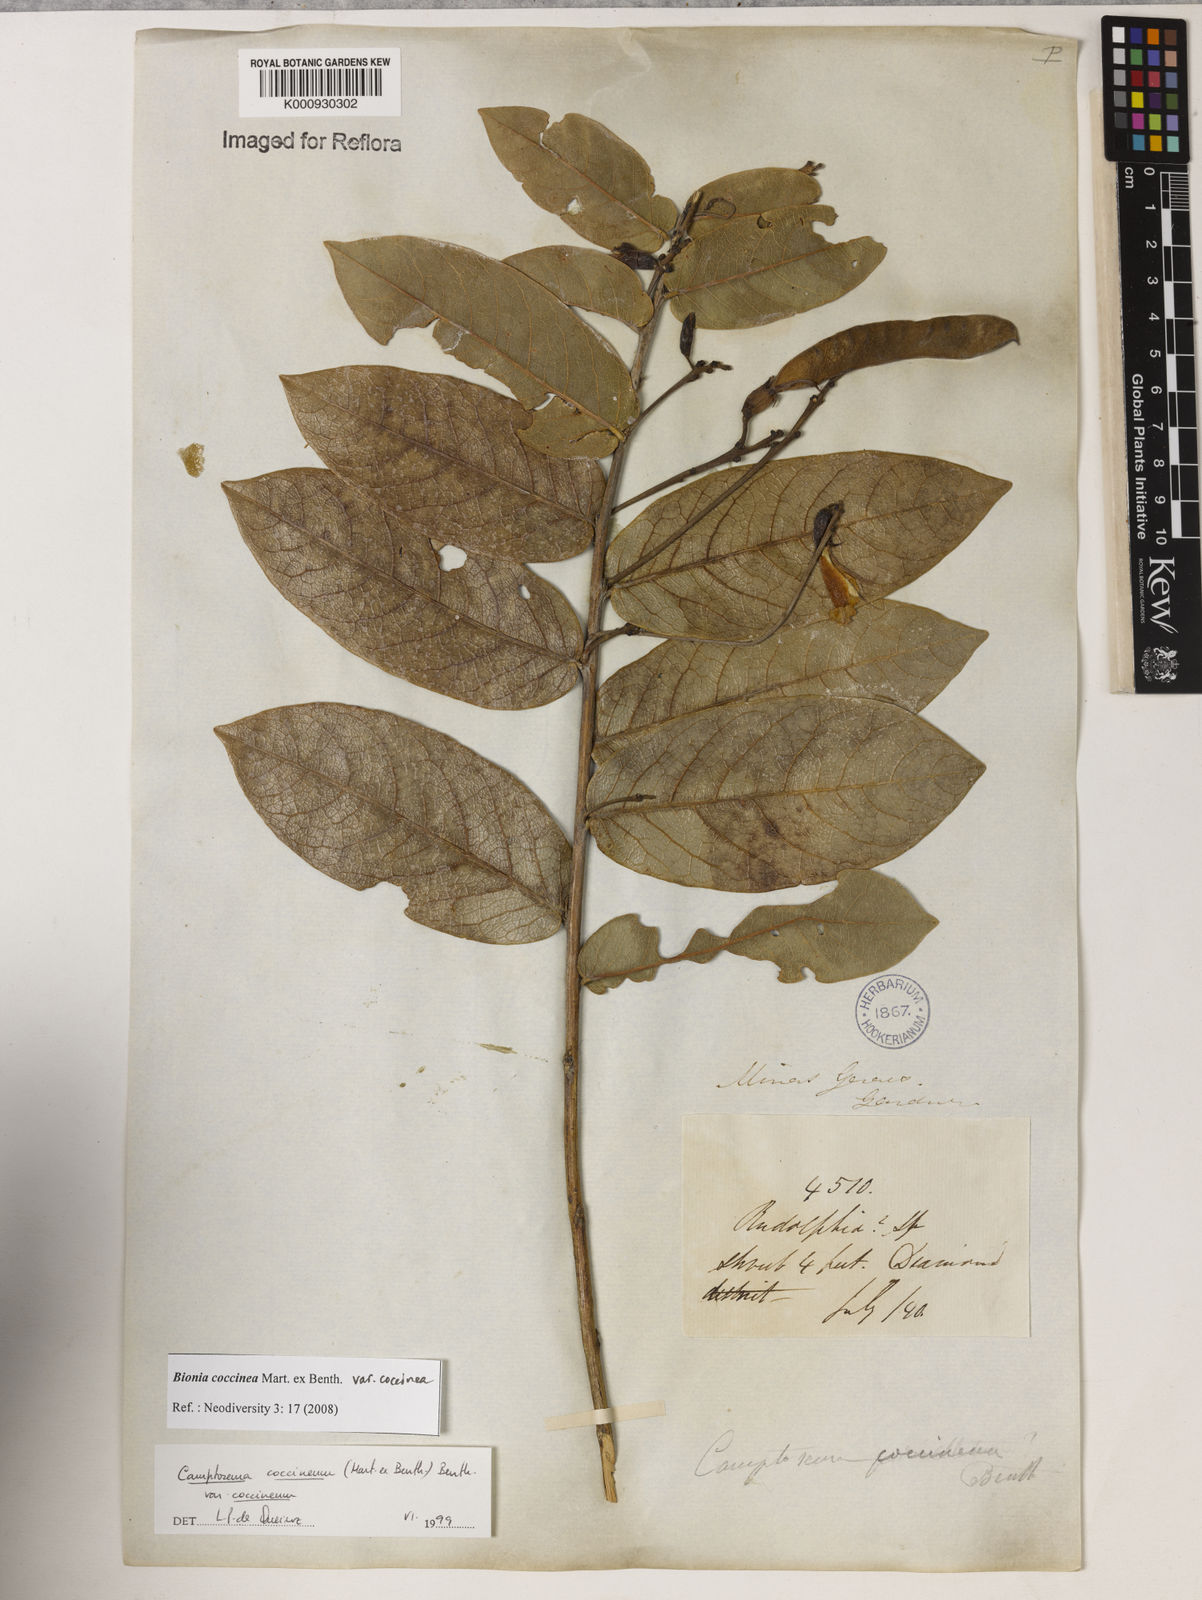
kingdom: Plantae
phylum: Tracheophyta
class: Magnoliopsida
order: Fabales
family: Fabaceae
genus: Camptosema
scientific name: Camptosema coccineum
